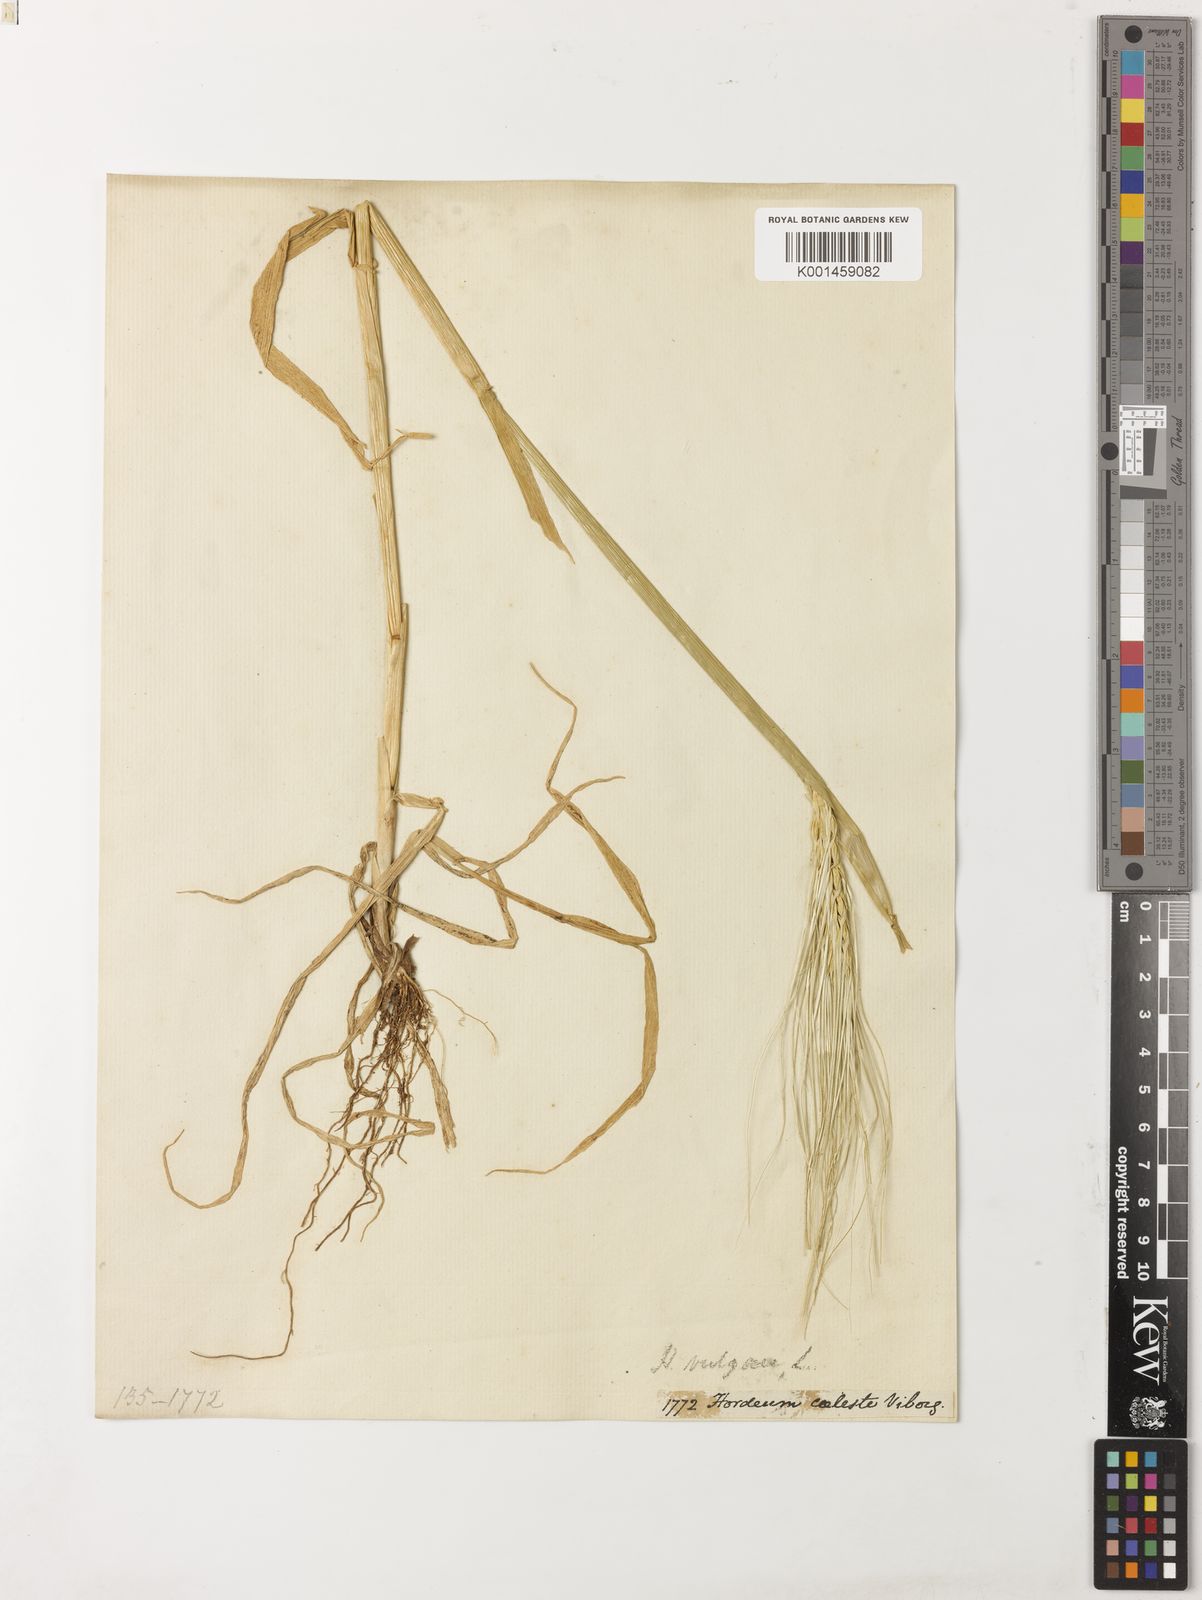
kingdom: Plantae
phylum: Tracheophyta
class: Liliopsida
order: Poales
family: Poaceae
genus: Hordeum
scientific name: Hordeum vulgare
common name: Common barley
